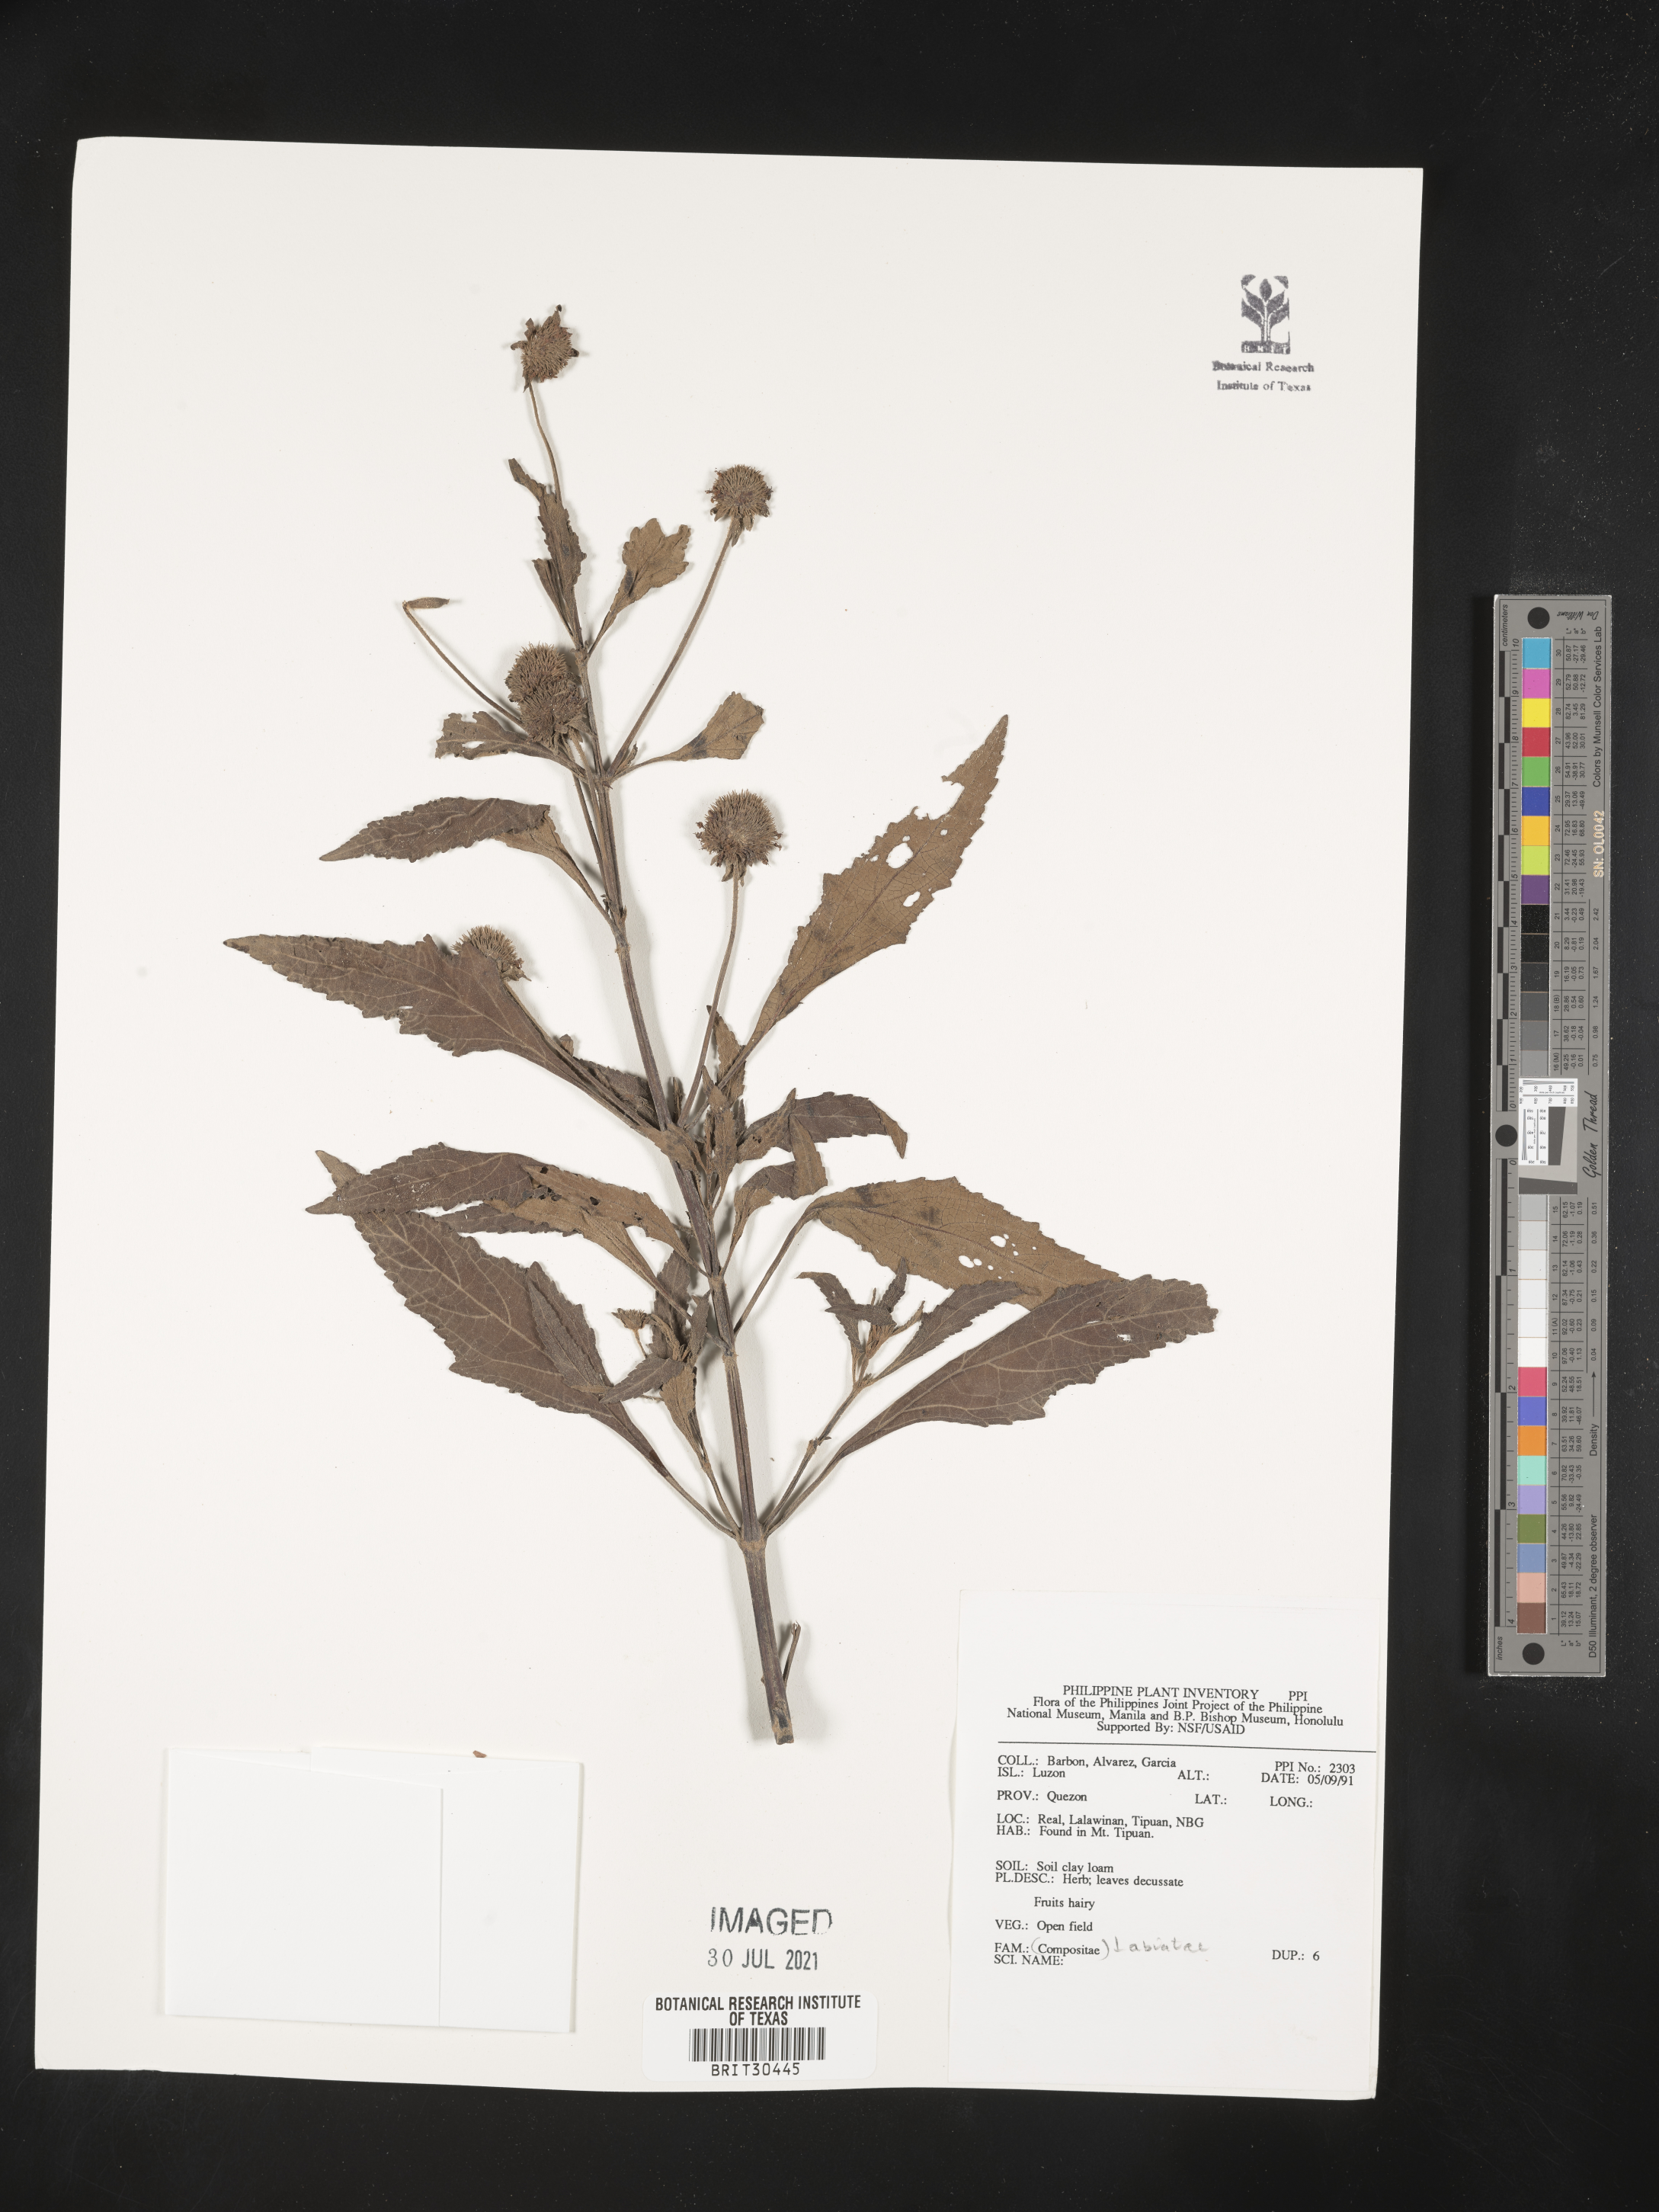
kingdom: Plantae
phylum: Tracheophyta
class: Magnoliopsida
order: Lamiales
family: Lamiaceae
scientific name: Lamiaceae
